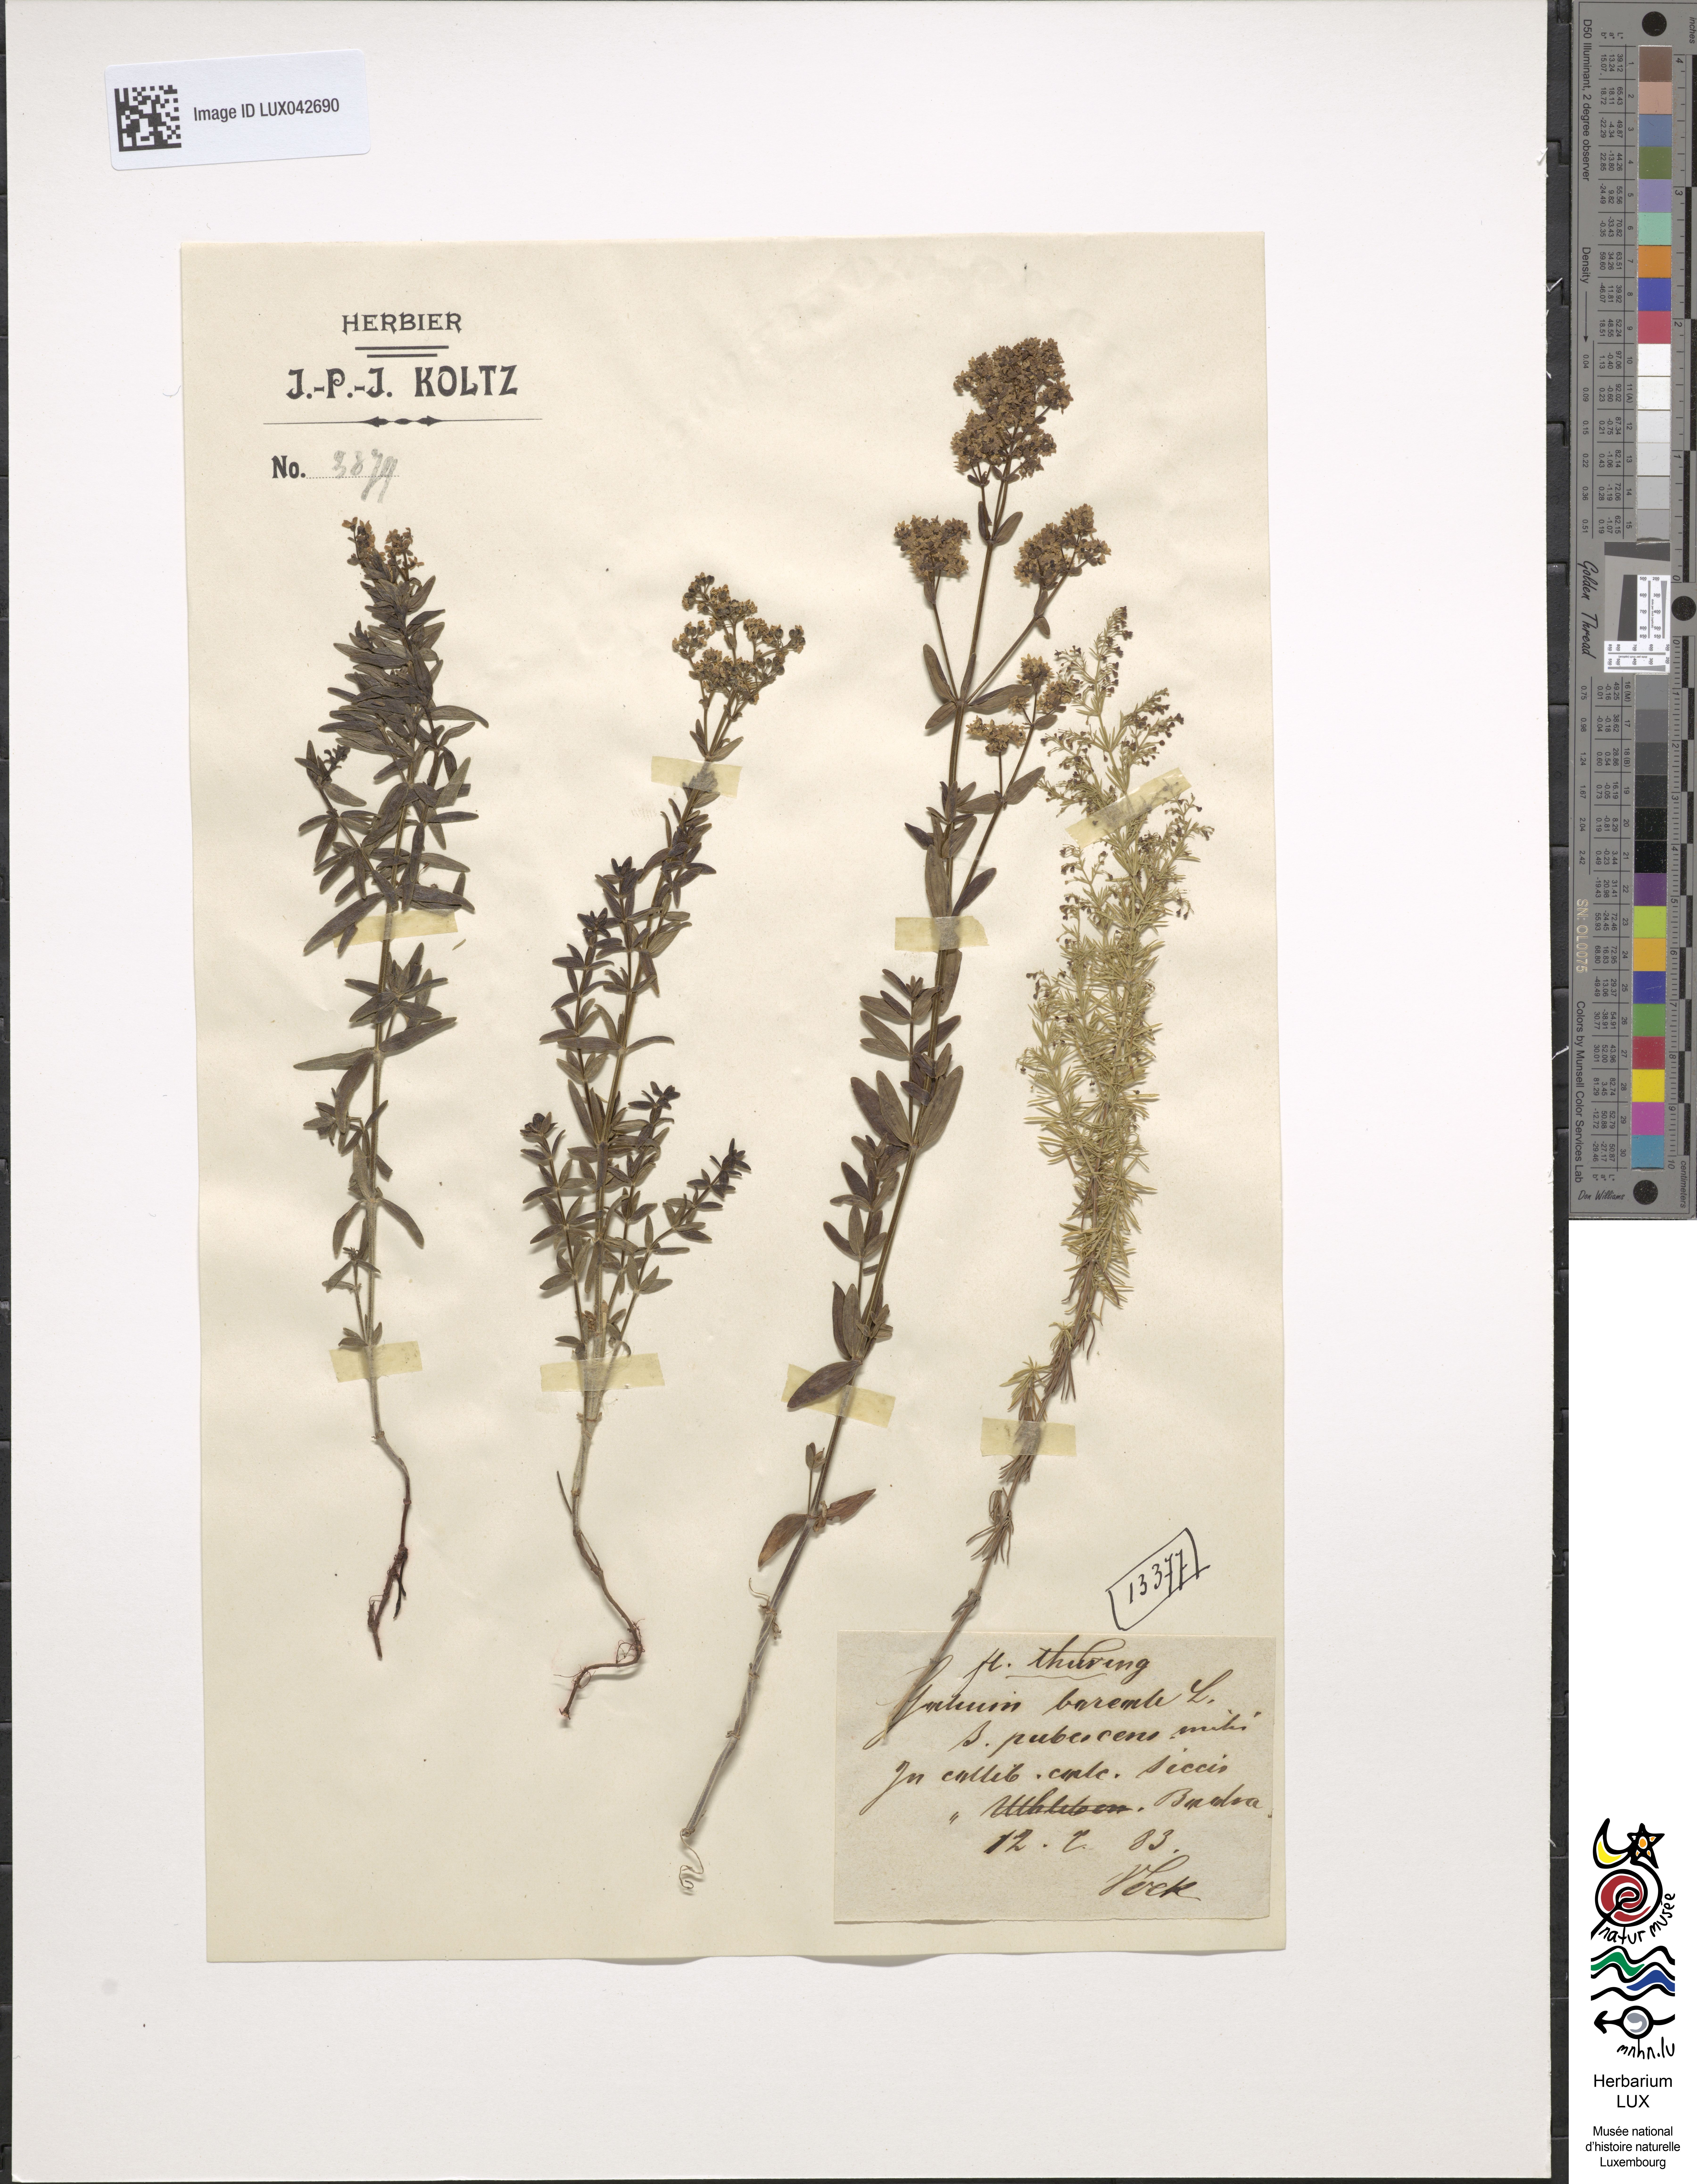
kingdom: Plantae
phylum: Tracheophyta
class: Magnoliopsida
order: Gentianales
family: Rubiaceae
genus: Galium
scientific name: Galium boreale
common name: Northern bedstraw
